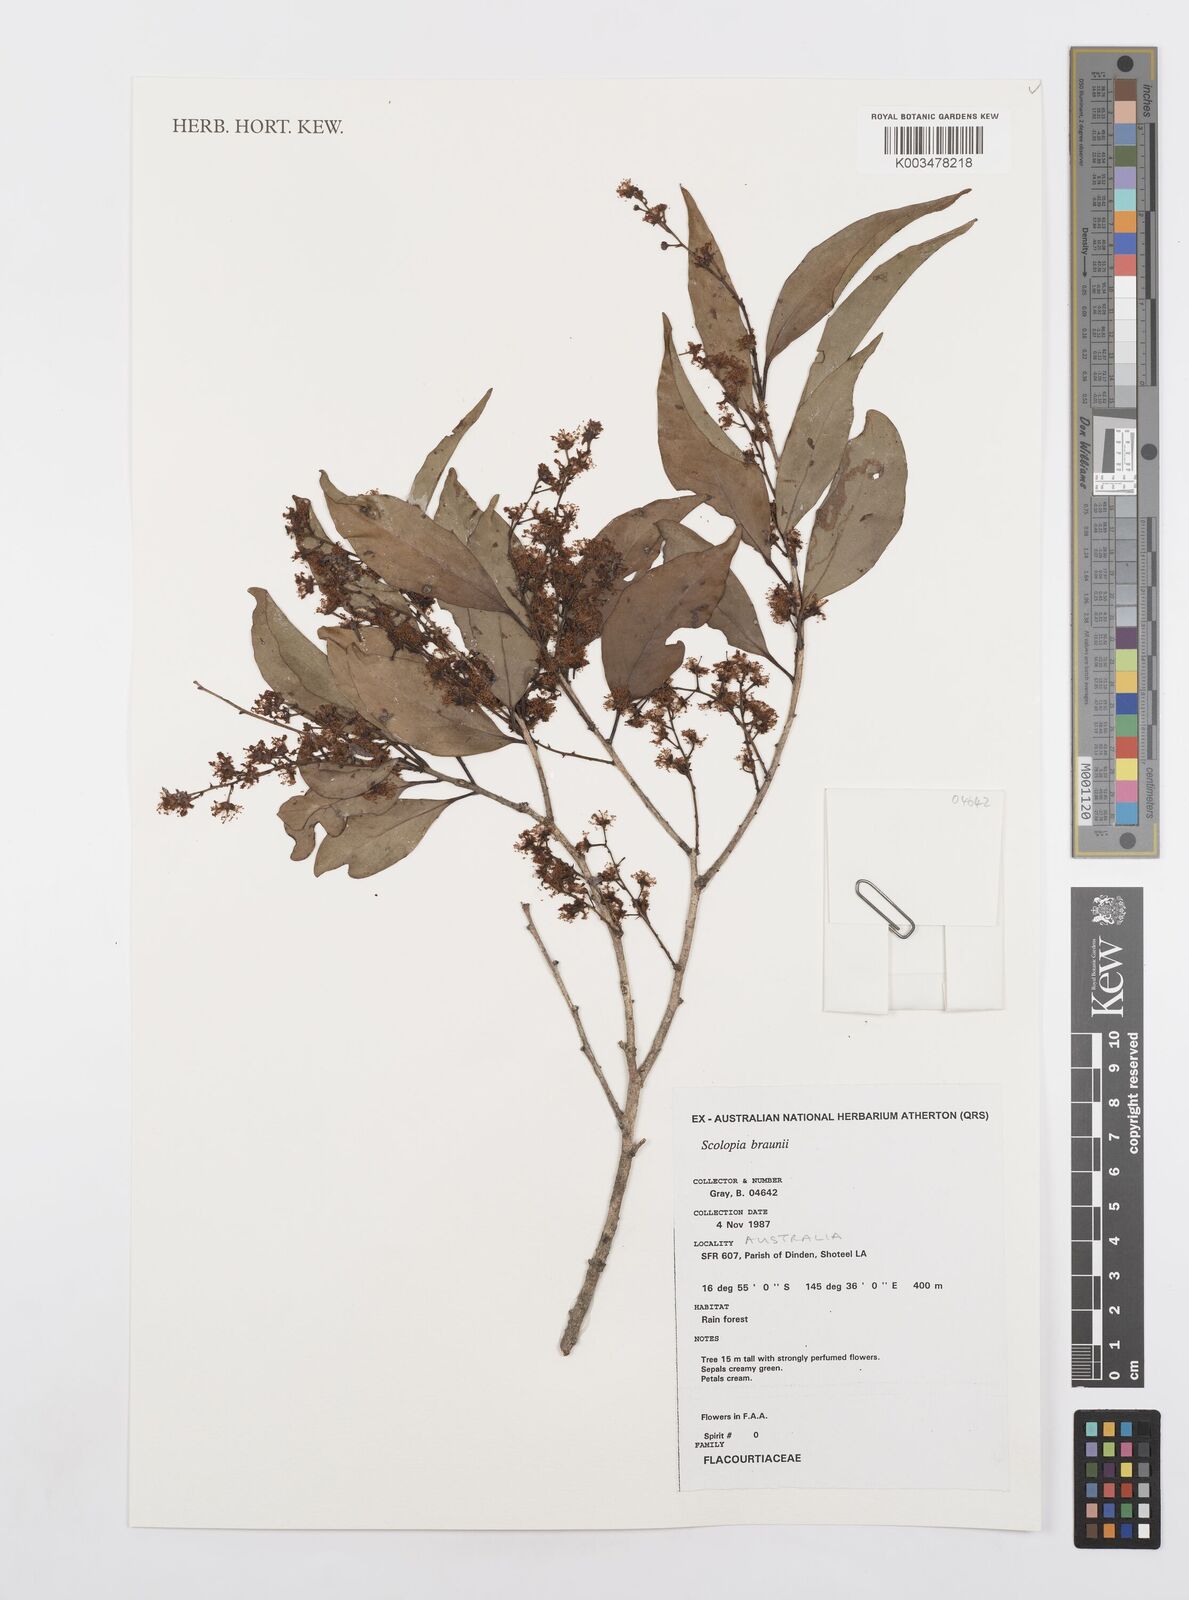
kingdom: Plantae
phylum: Tracheophyta
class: Magnoliopsida
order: Malpighiales
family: Salicaceae
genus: Scolopia
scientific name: Scolopia braunii
